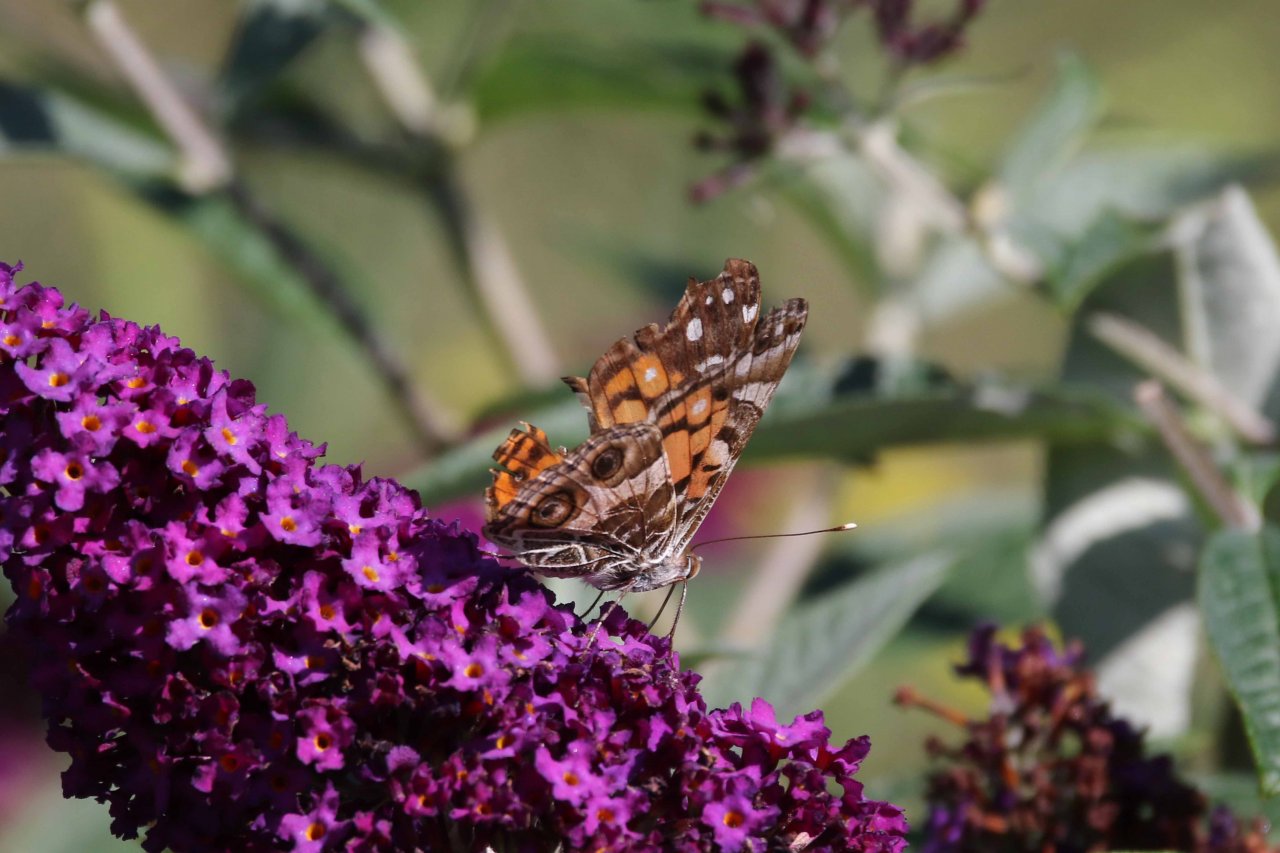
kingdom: Animalia
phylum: Arthropoda
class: Insecta
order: Lepidoptera
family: Nymphalidae
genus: Vanessa
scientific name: Vanessa virginiensis
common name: American Lady
